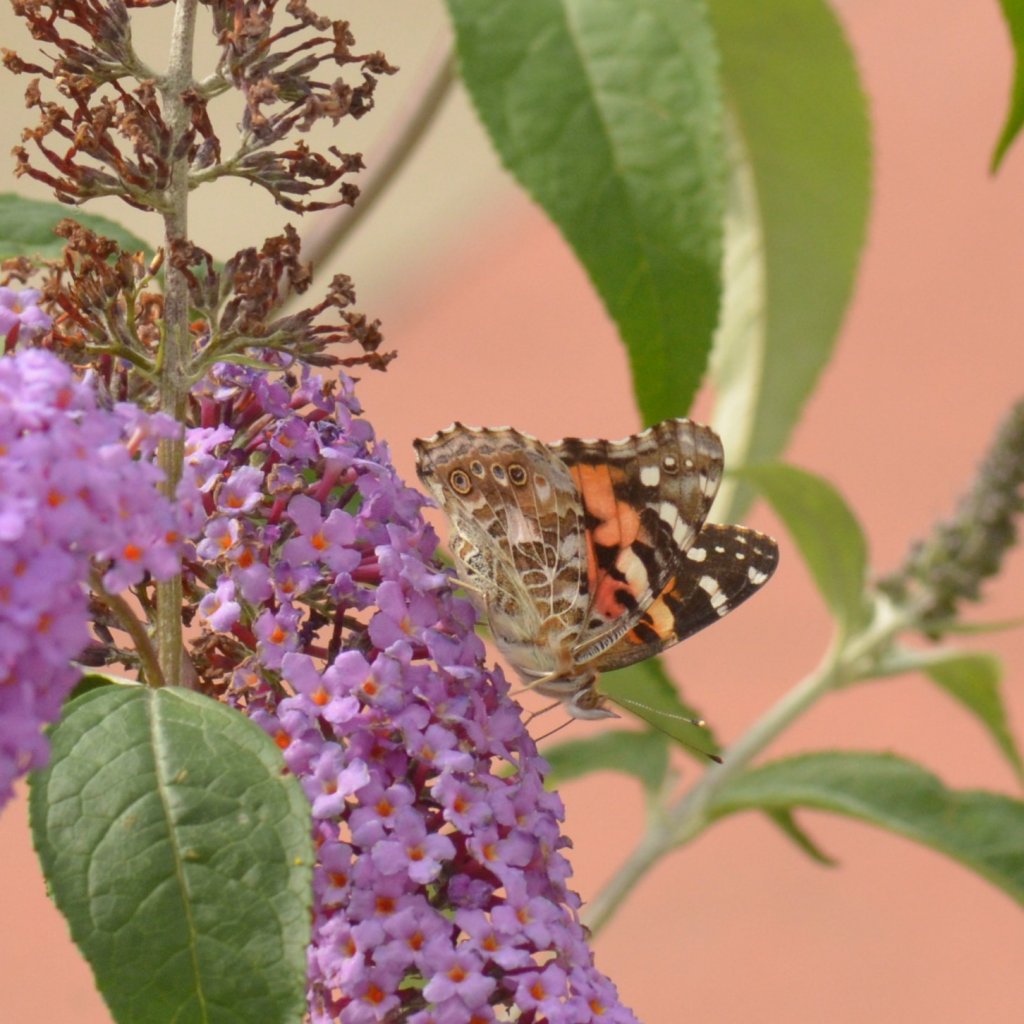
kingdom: Animalia
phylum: Arthropoda
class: Insecta
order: Lepidoptera
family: Nymphalidae
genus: Vanessa
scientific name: Vanessa cardui
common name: Painted Lady
